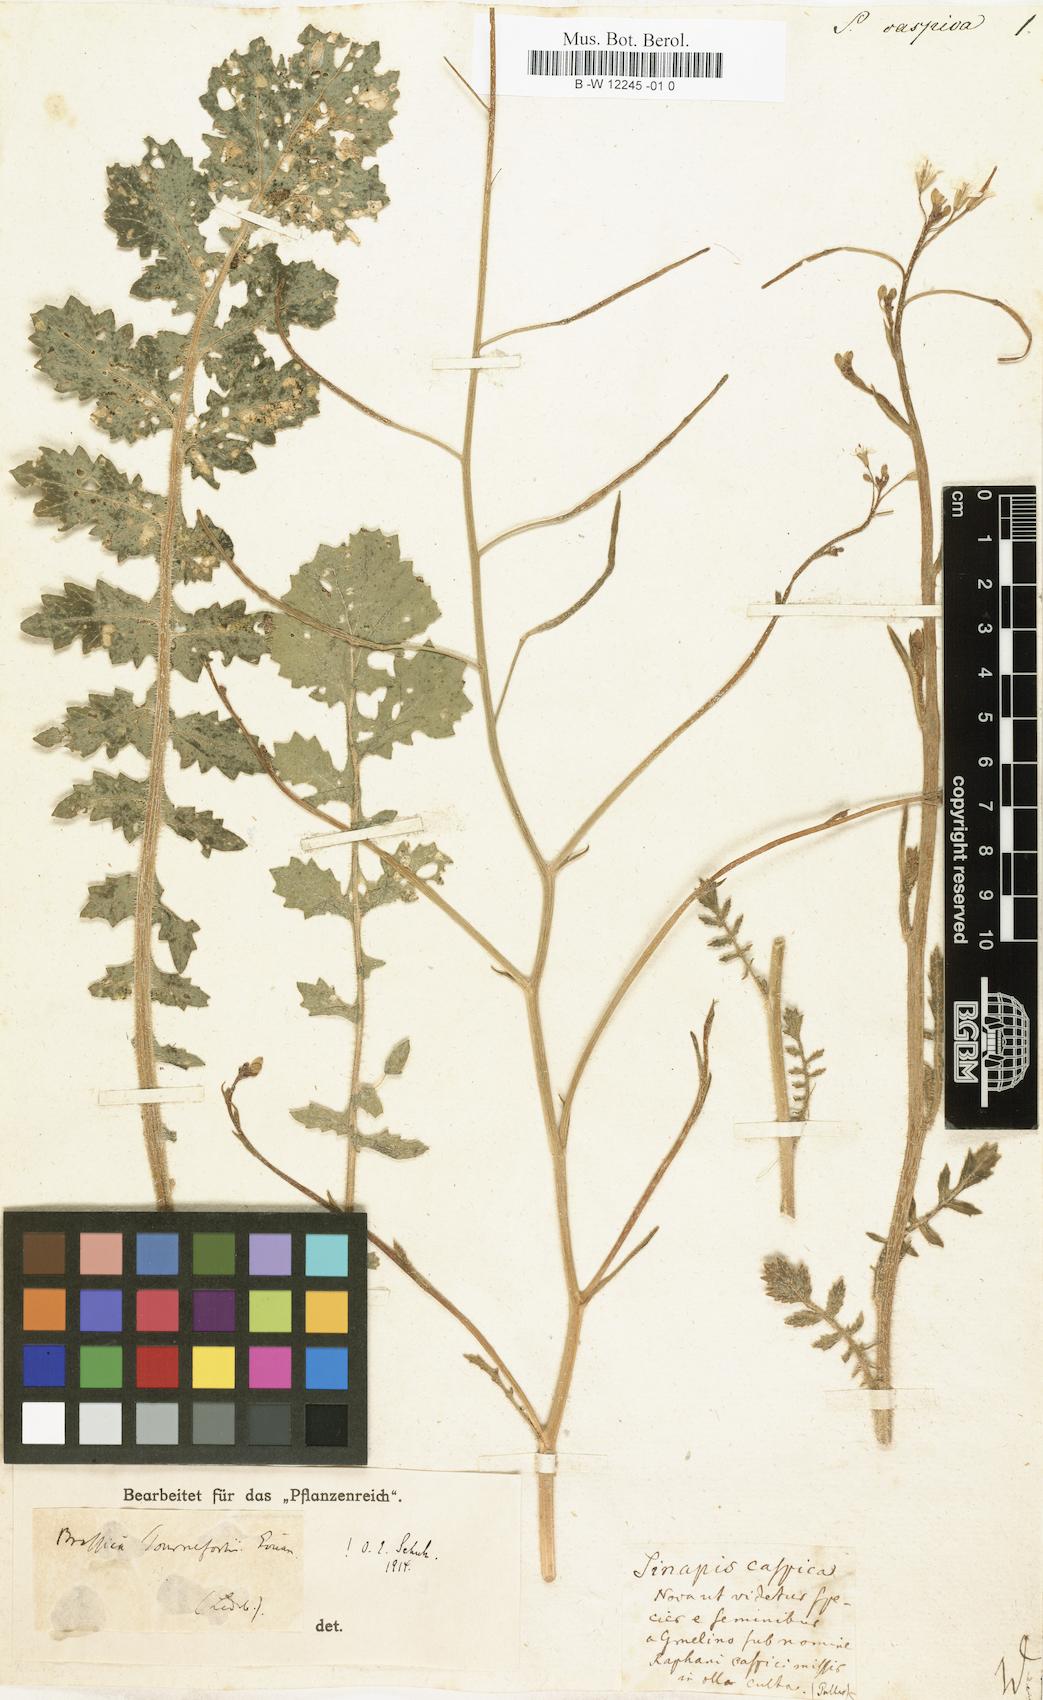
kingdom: Plantae
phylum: Tracheophyta
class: Magnoliopsida
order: Brassicales
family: Brassicaceae
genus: Brassica
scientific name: Brassica tournefortii
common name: Pale cabbage
